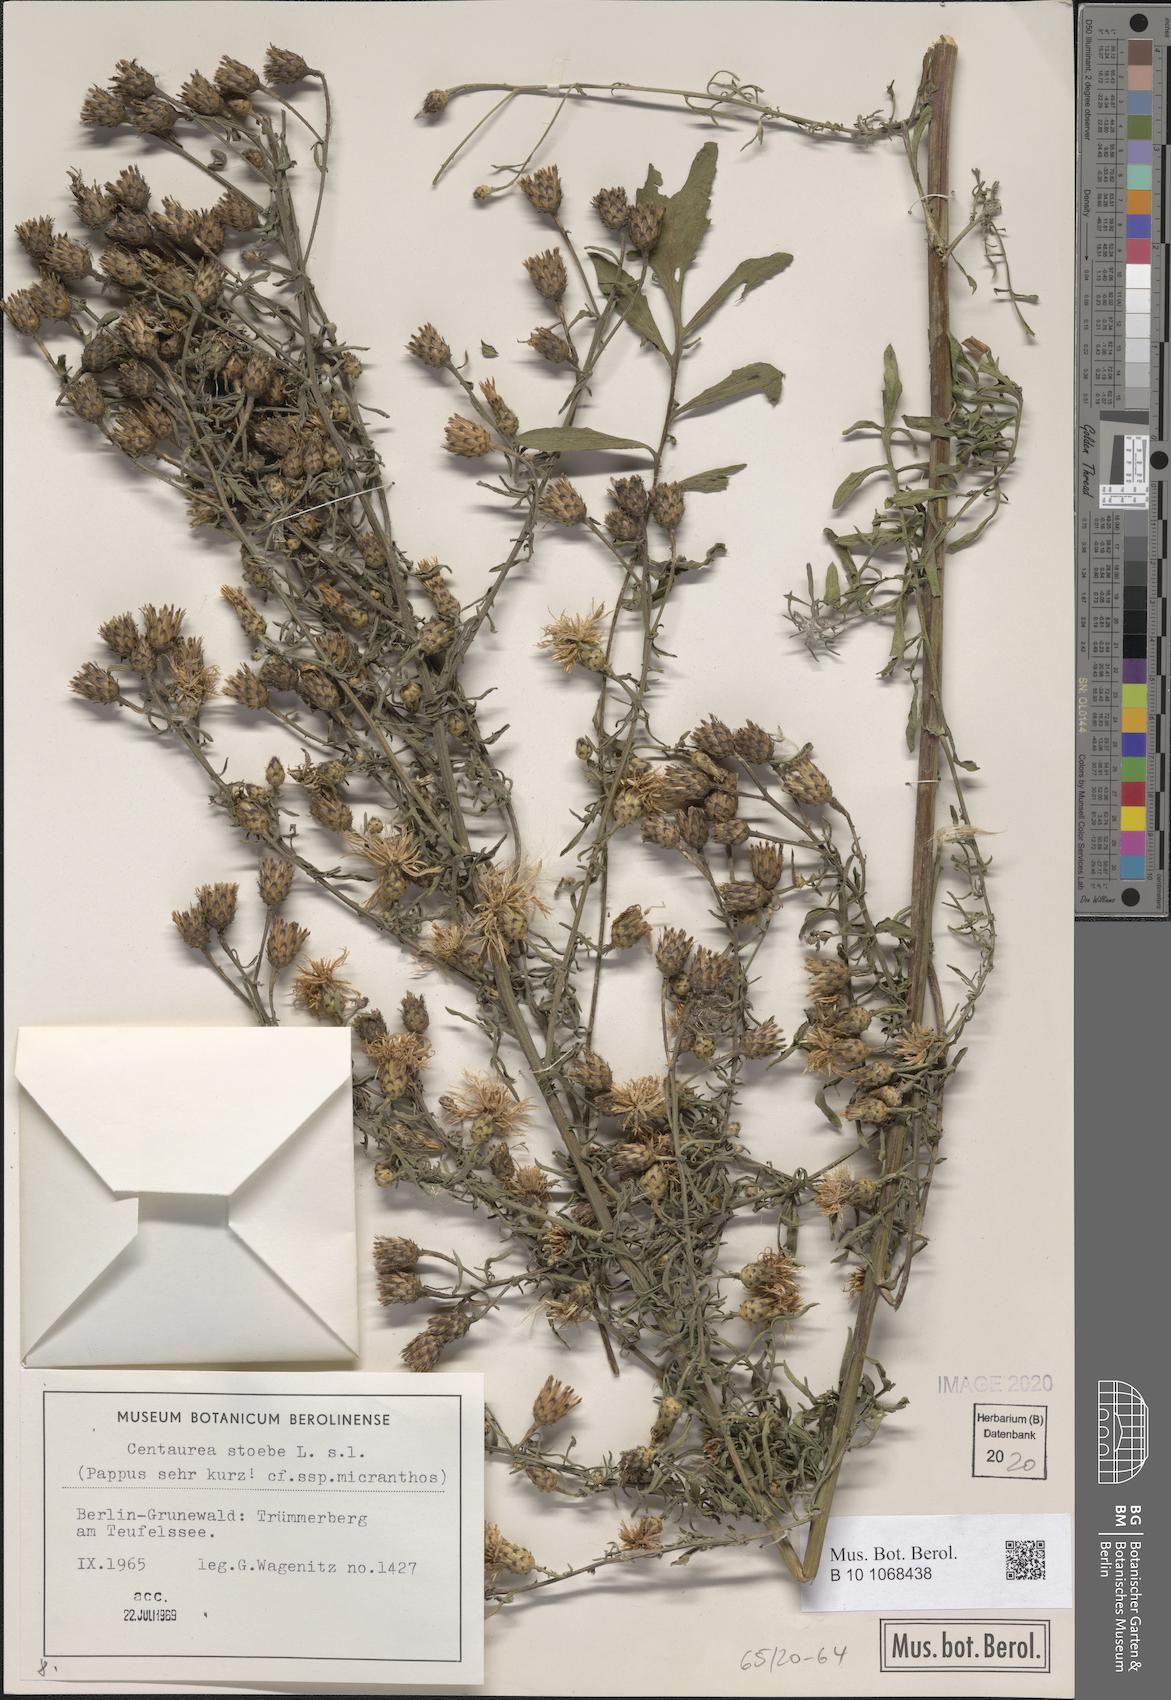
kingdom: Plantae
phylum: Tracheophyta
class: Magnoliopsida
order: Asterales
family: Asteraceae
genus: Centaurea
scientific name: Centaurea stoebe
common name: Spotted knapweed
